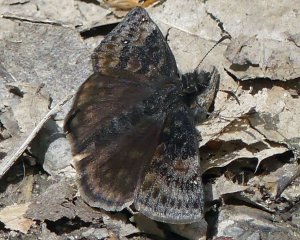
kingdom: Animalia
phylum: Arthropoda
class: Insecta
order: Lepidoptera
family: Hesperiidae
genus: Gesta
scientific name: Gesta
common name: Wild Indigo Duskywing
